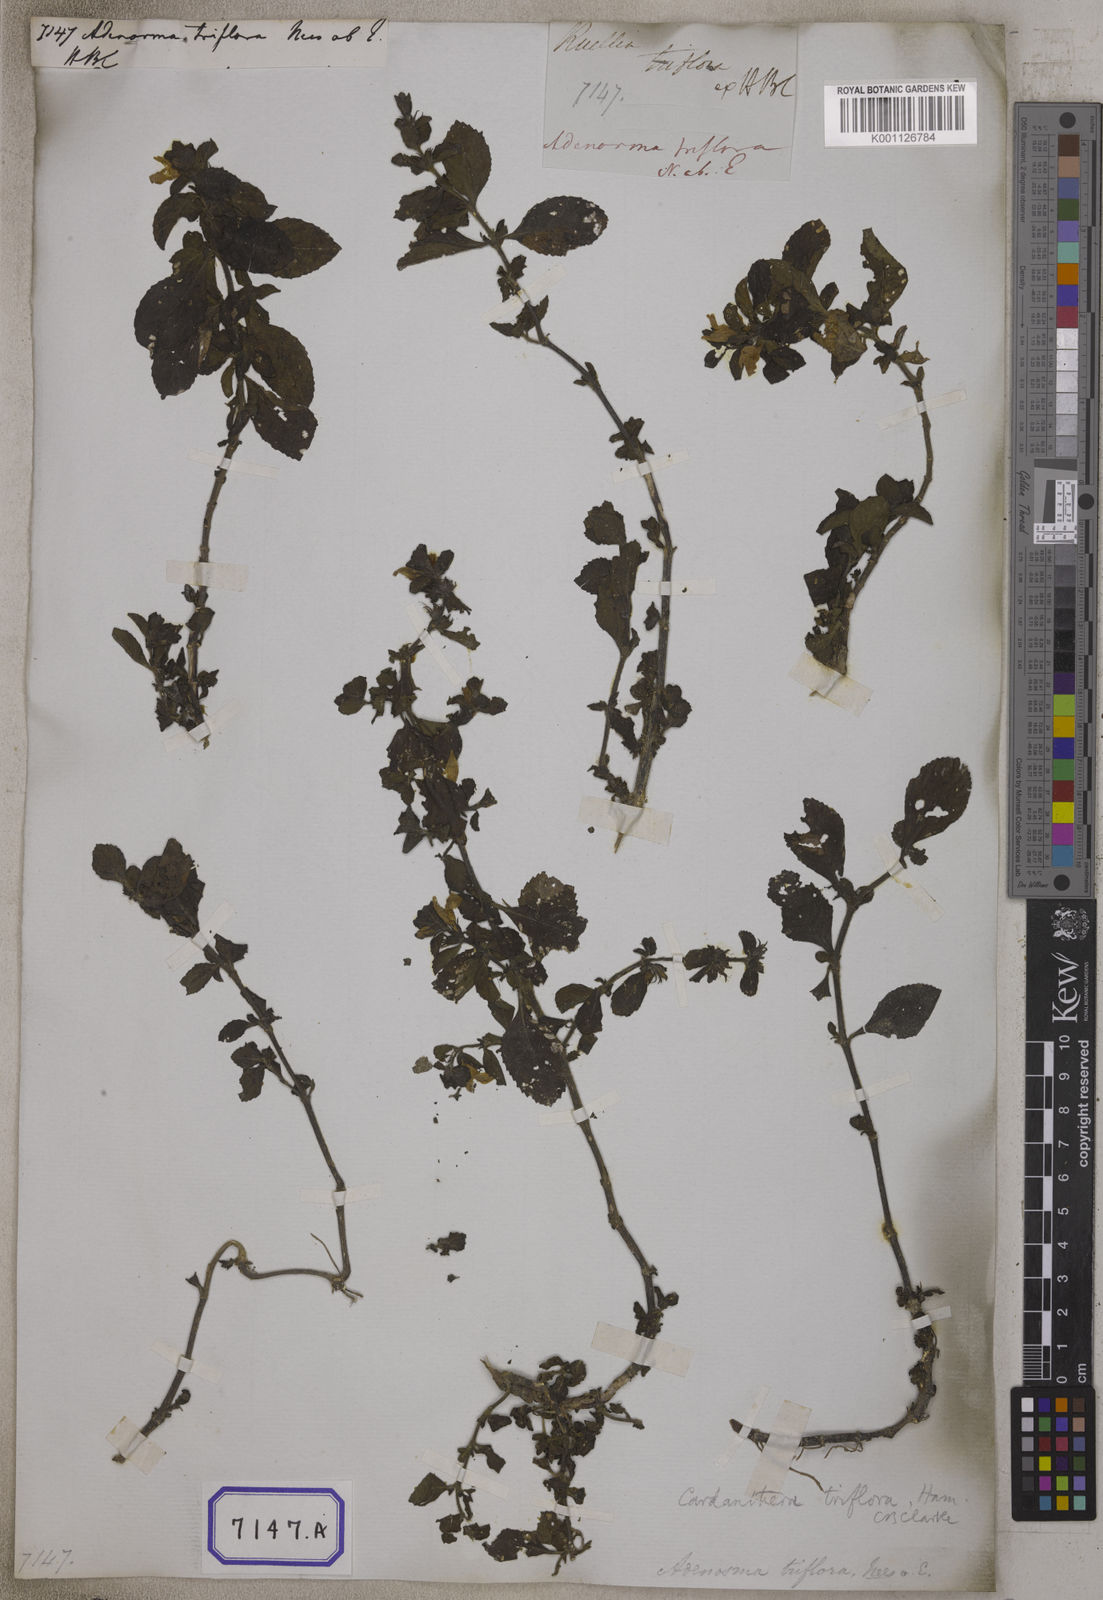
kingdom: Plantae
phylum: Tracheophyta
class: Magnoliopsida
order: Lamiales
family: Plantaginaceae
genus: Adenosma
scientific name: Adenosma
